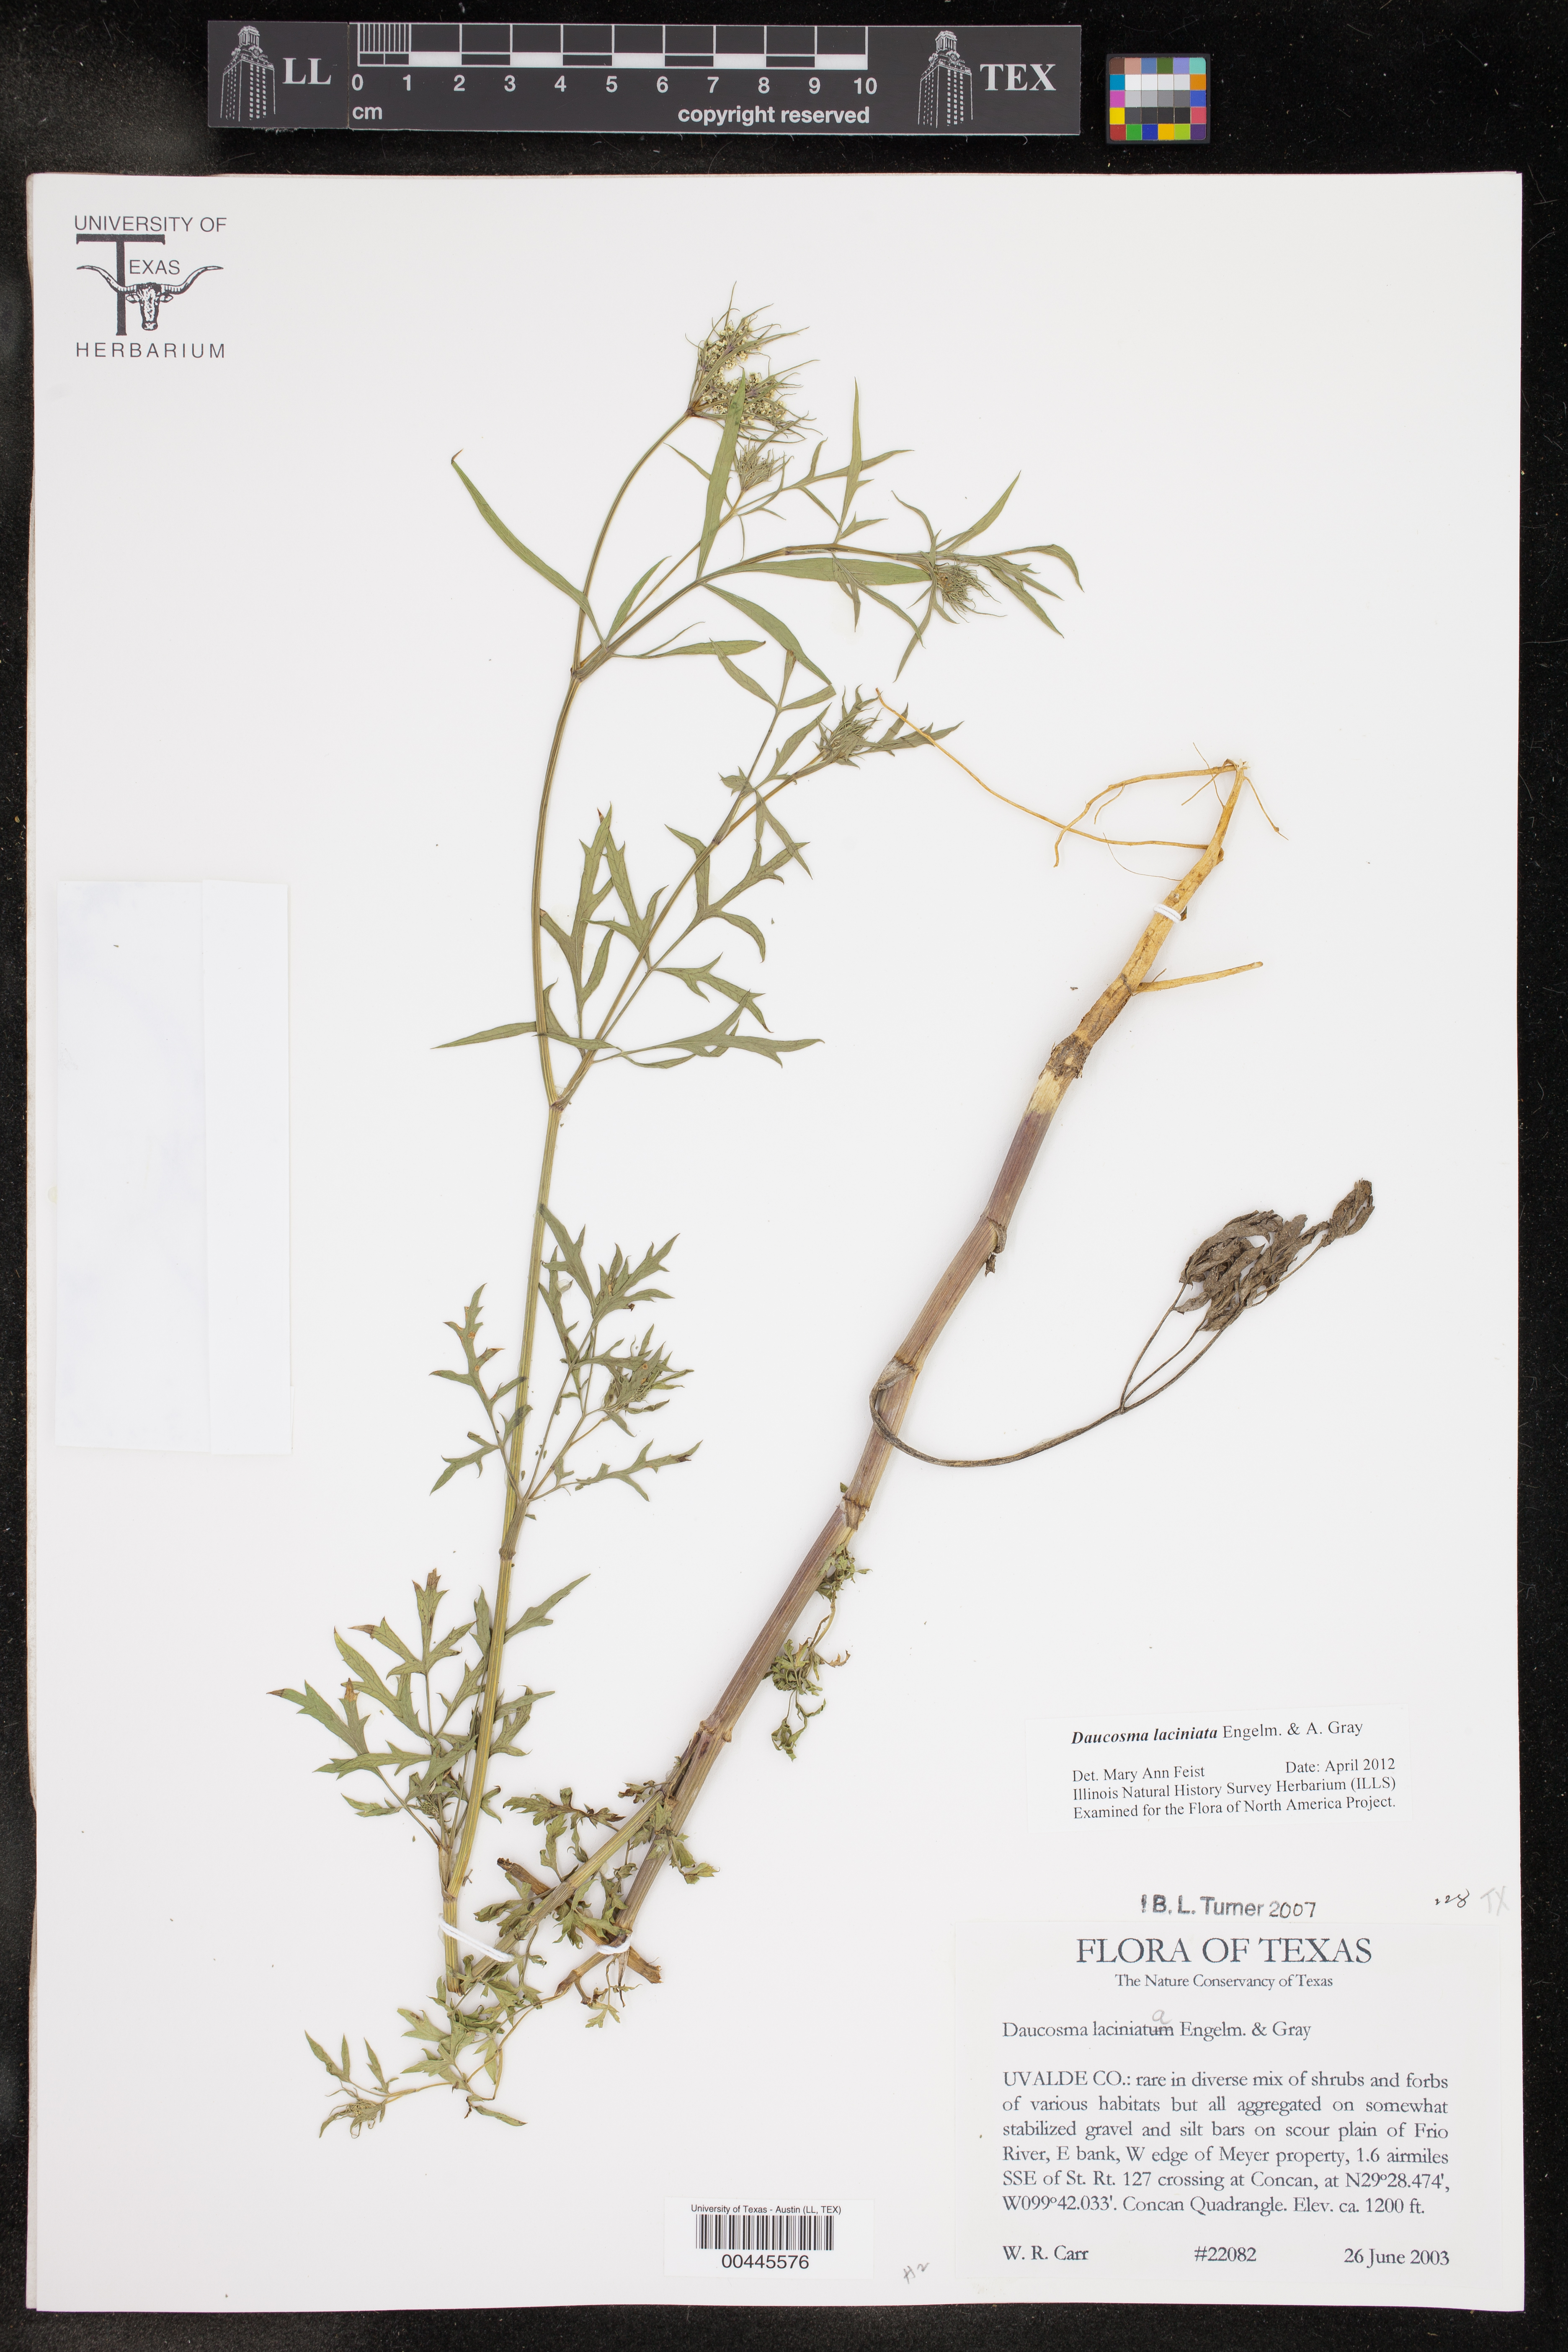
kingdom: Plantae
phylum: Tracheophyta
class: Magnoliopsida
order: Apiales
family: Apiaceae
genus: Daucosma
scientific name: Daucosma laciniatum
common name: Meadow-parasol
